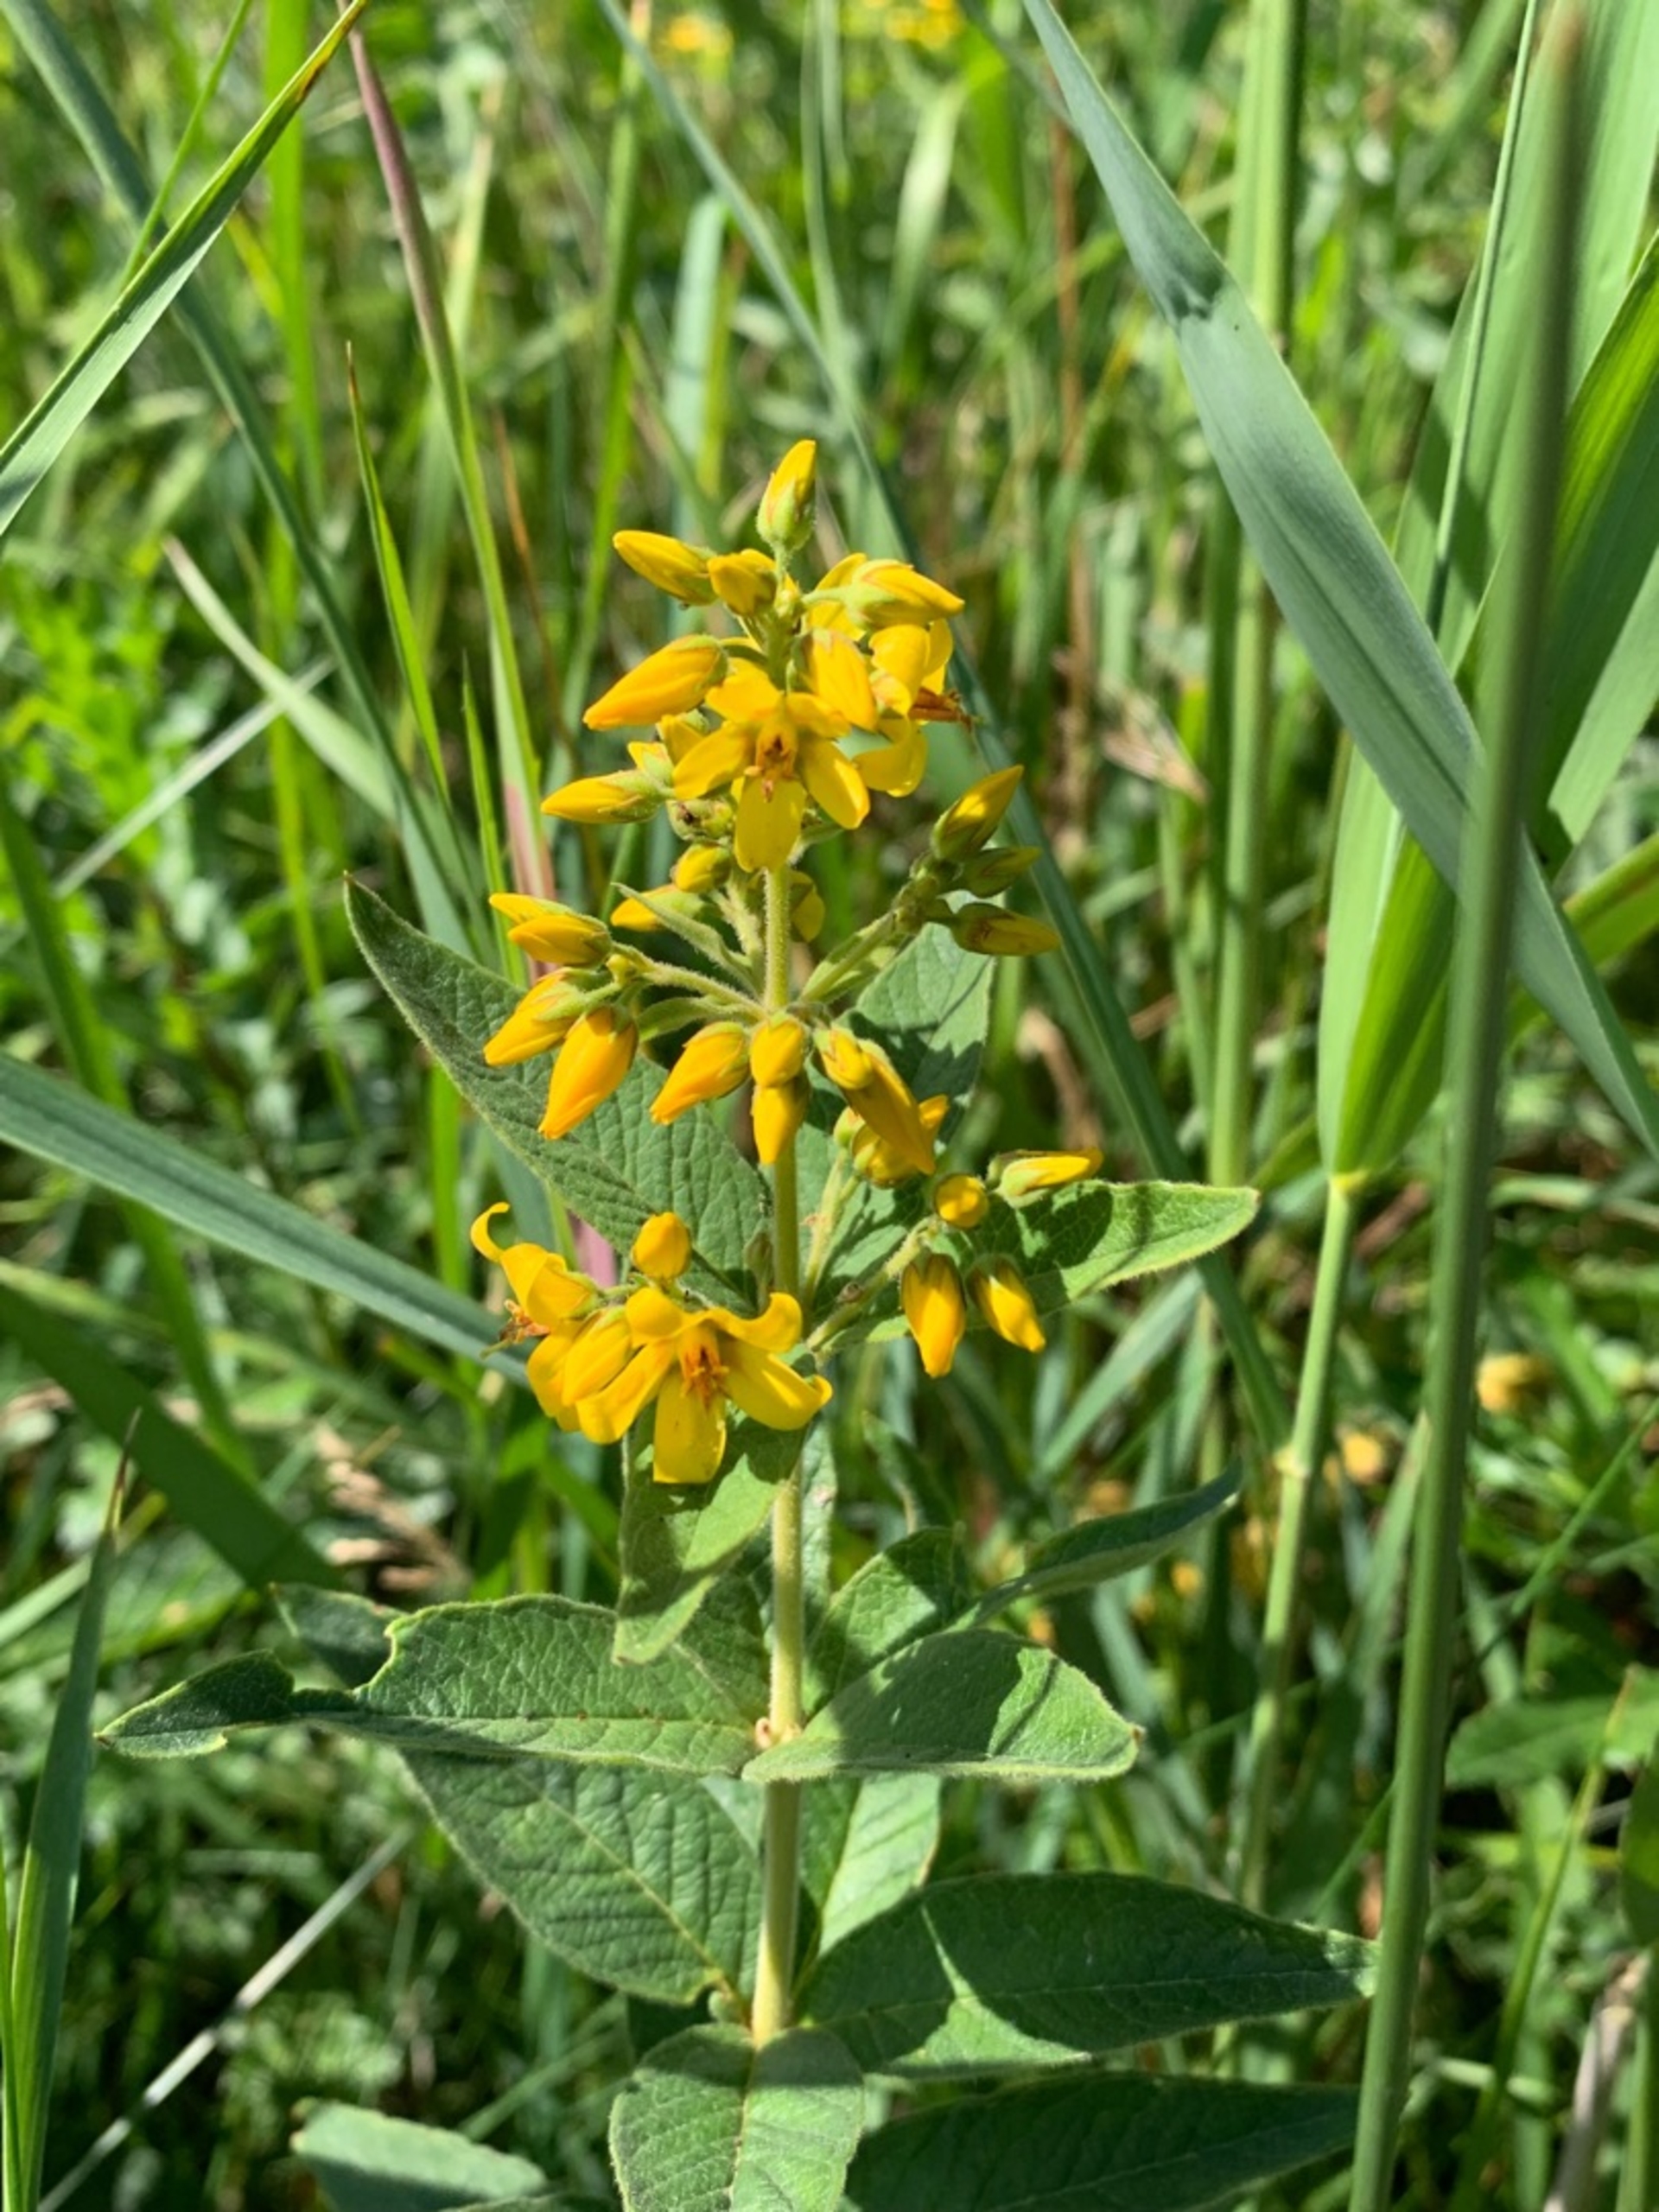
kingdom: Plantae
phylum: Tracheophyta
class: Magnoliopsida
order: Ericales
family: Primulaceae
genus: Lysimachia
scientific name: Lysimachia vulgaris
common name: Almindelig fredløs
